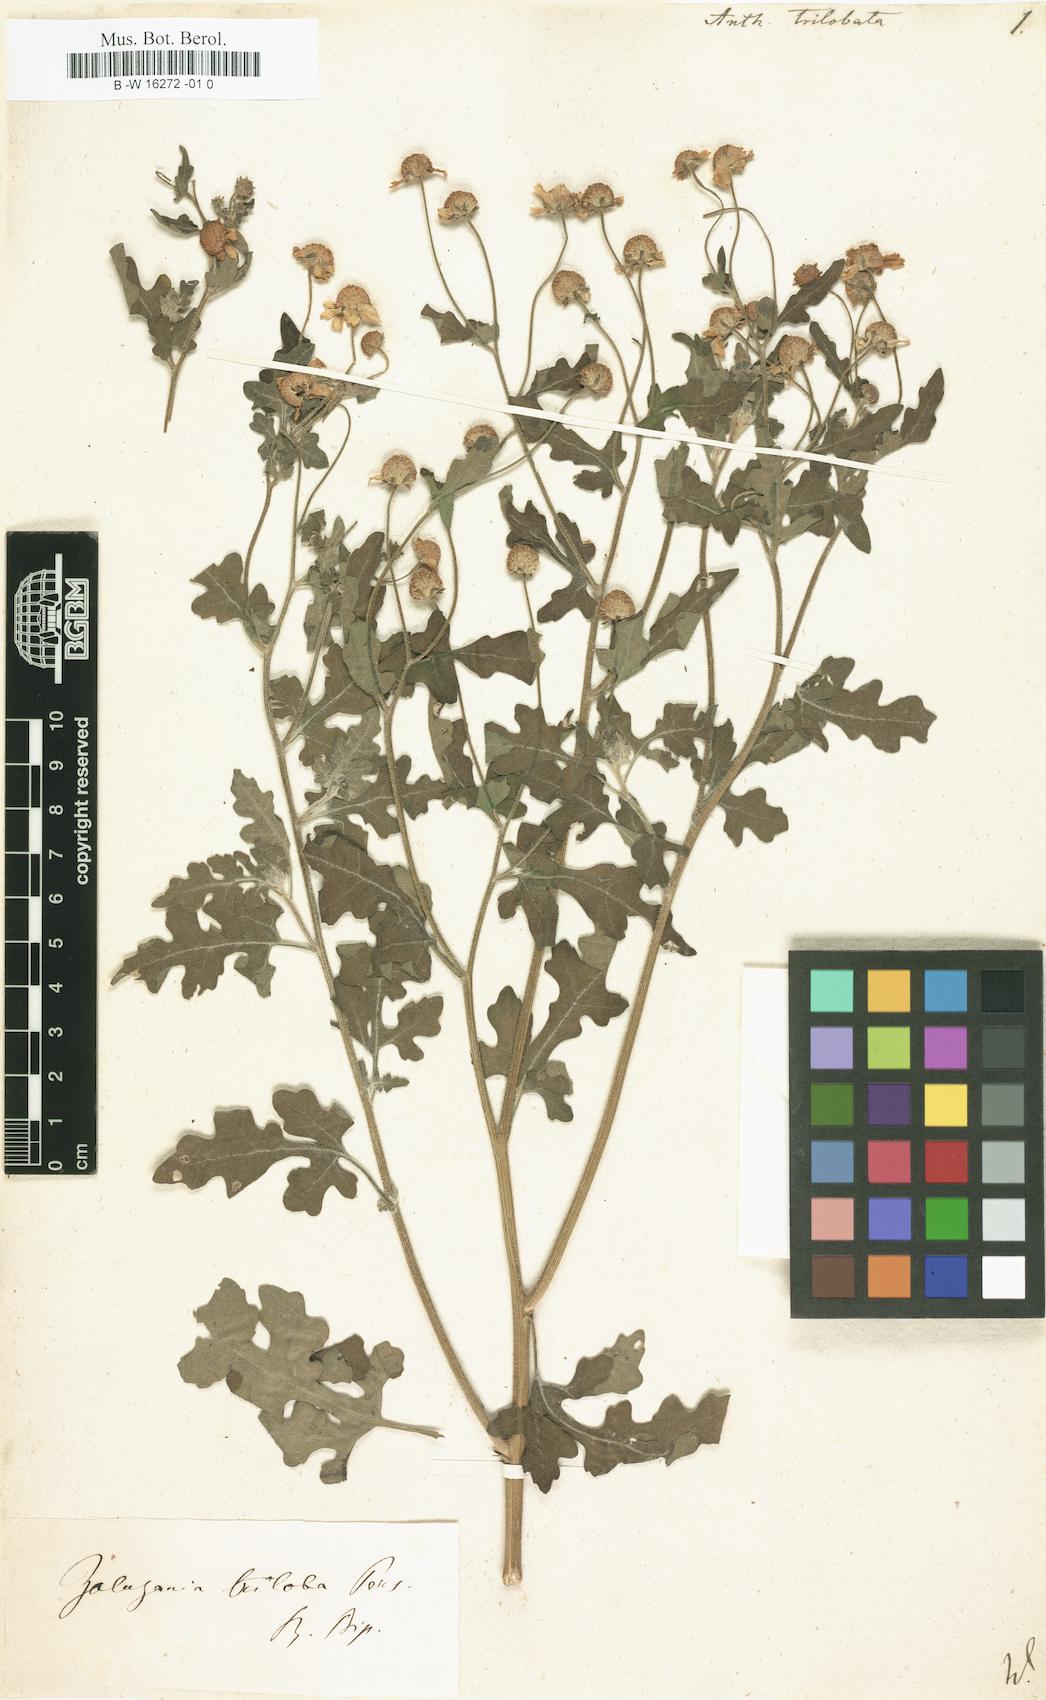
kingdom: Plantae
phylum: Tracheophyta
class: Magnoliopsida
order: Asterales
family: Asteraceae
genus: Zaluzania
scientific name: Zaluzania triloba
